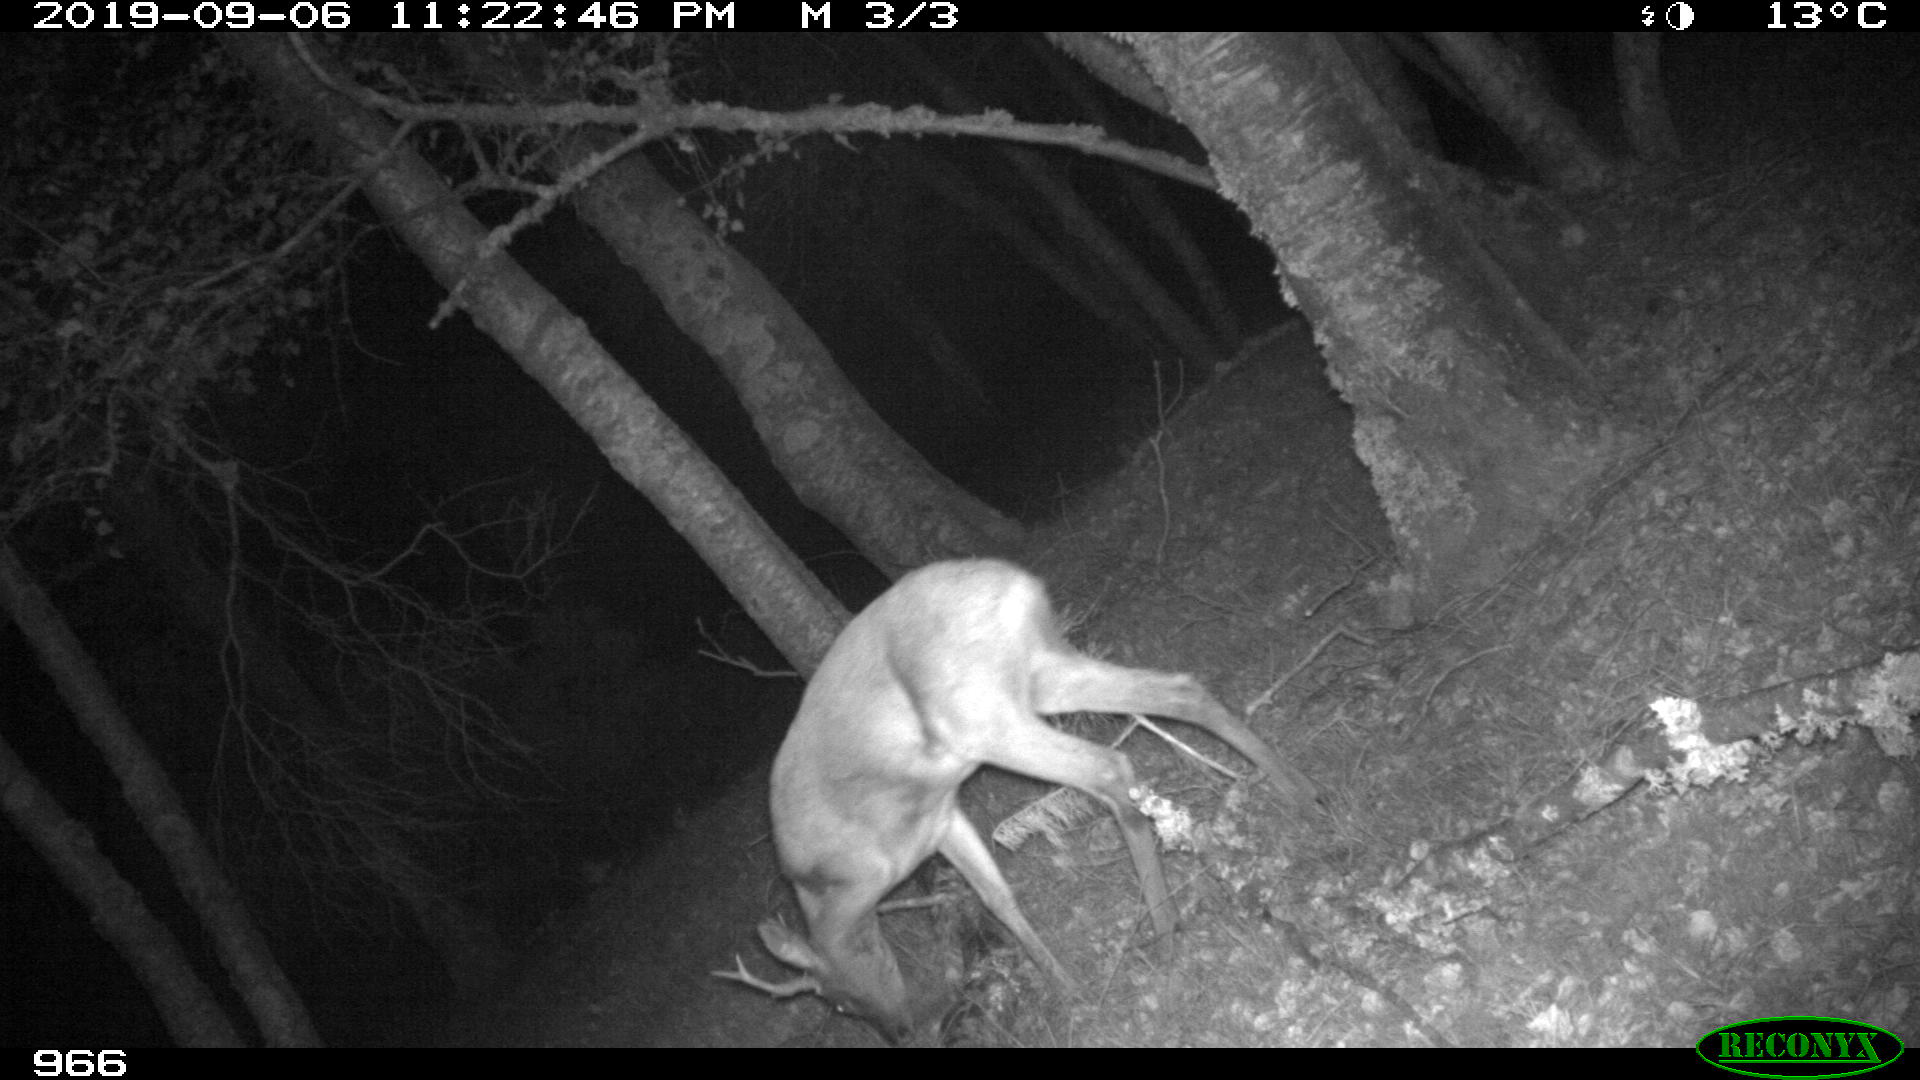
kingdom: Animalia
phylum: Chordata
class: Mammalia
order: Artiodactyla
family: Cervidae
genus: Capreolus
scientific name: Capreolus capreolus
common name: Western roe deer
